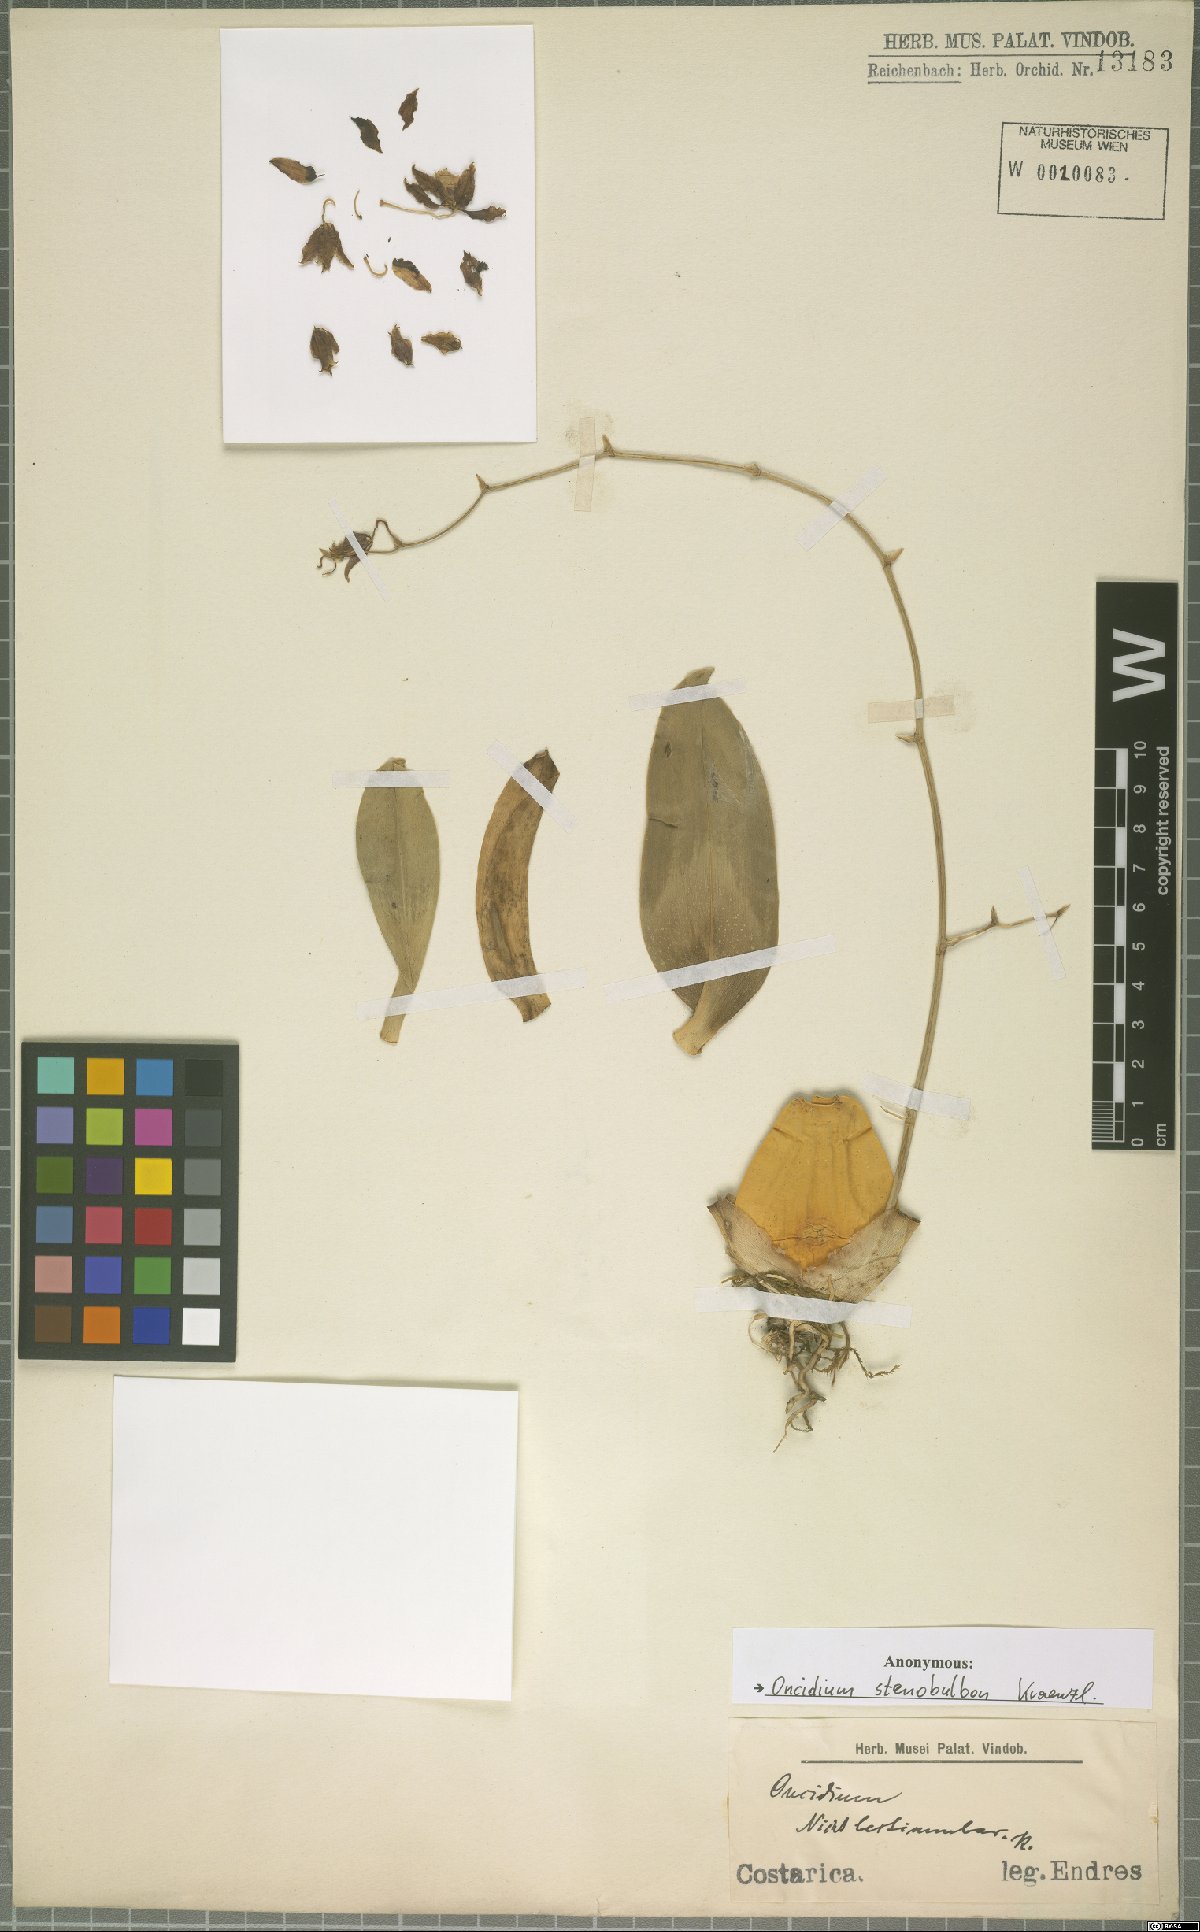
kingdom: Plantae
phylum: Tracheophyta
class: Liliopsida
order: Asparagales
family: Orchidaceae
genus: Oncidium
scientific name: Oncidium stenobulbon
